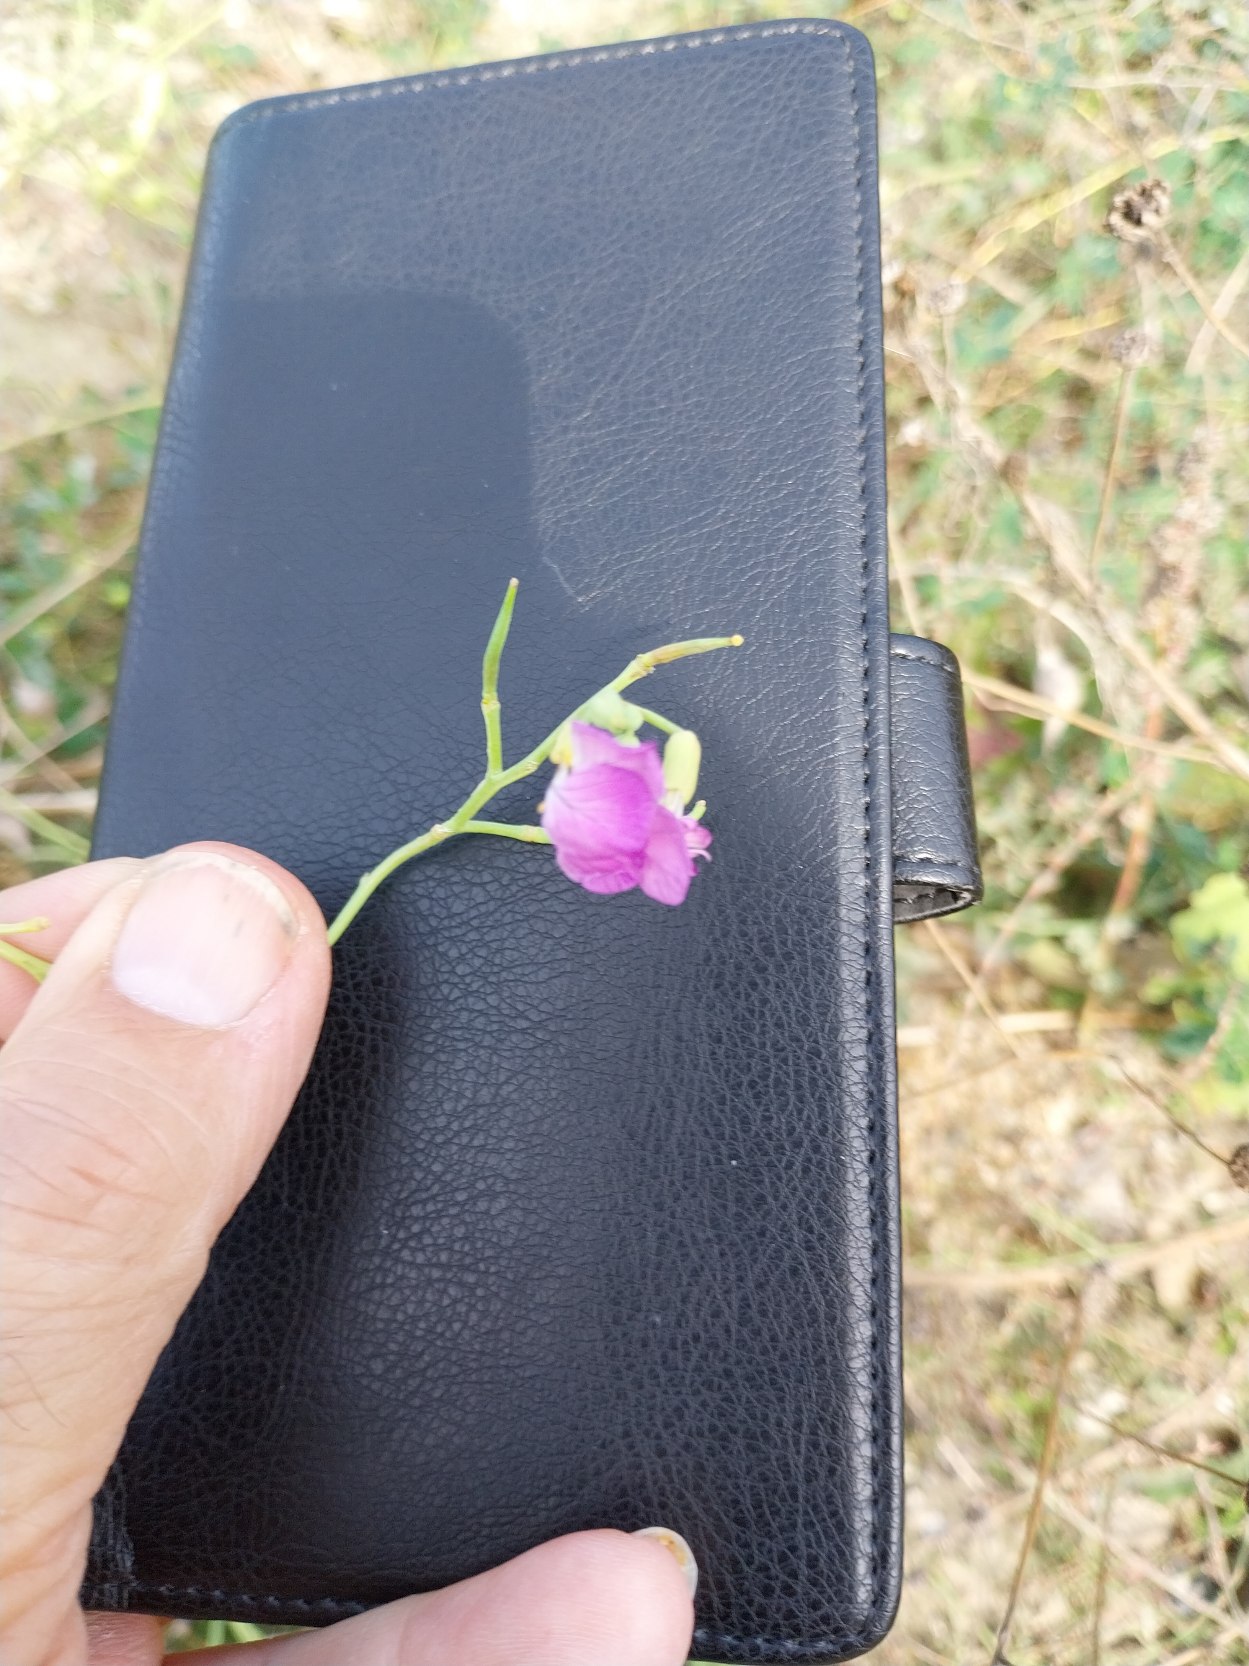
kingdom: Plantae
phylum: Tracheophyta
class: Magnoliopsida
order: Brassicales
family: Brassicaceae
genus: Raphanus
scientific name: Raphanus sativus
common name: Olie-ræddike
